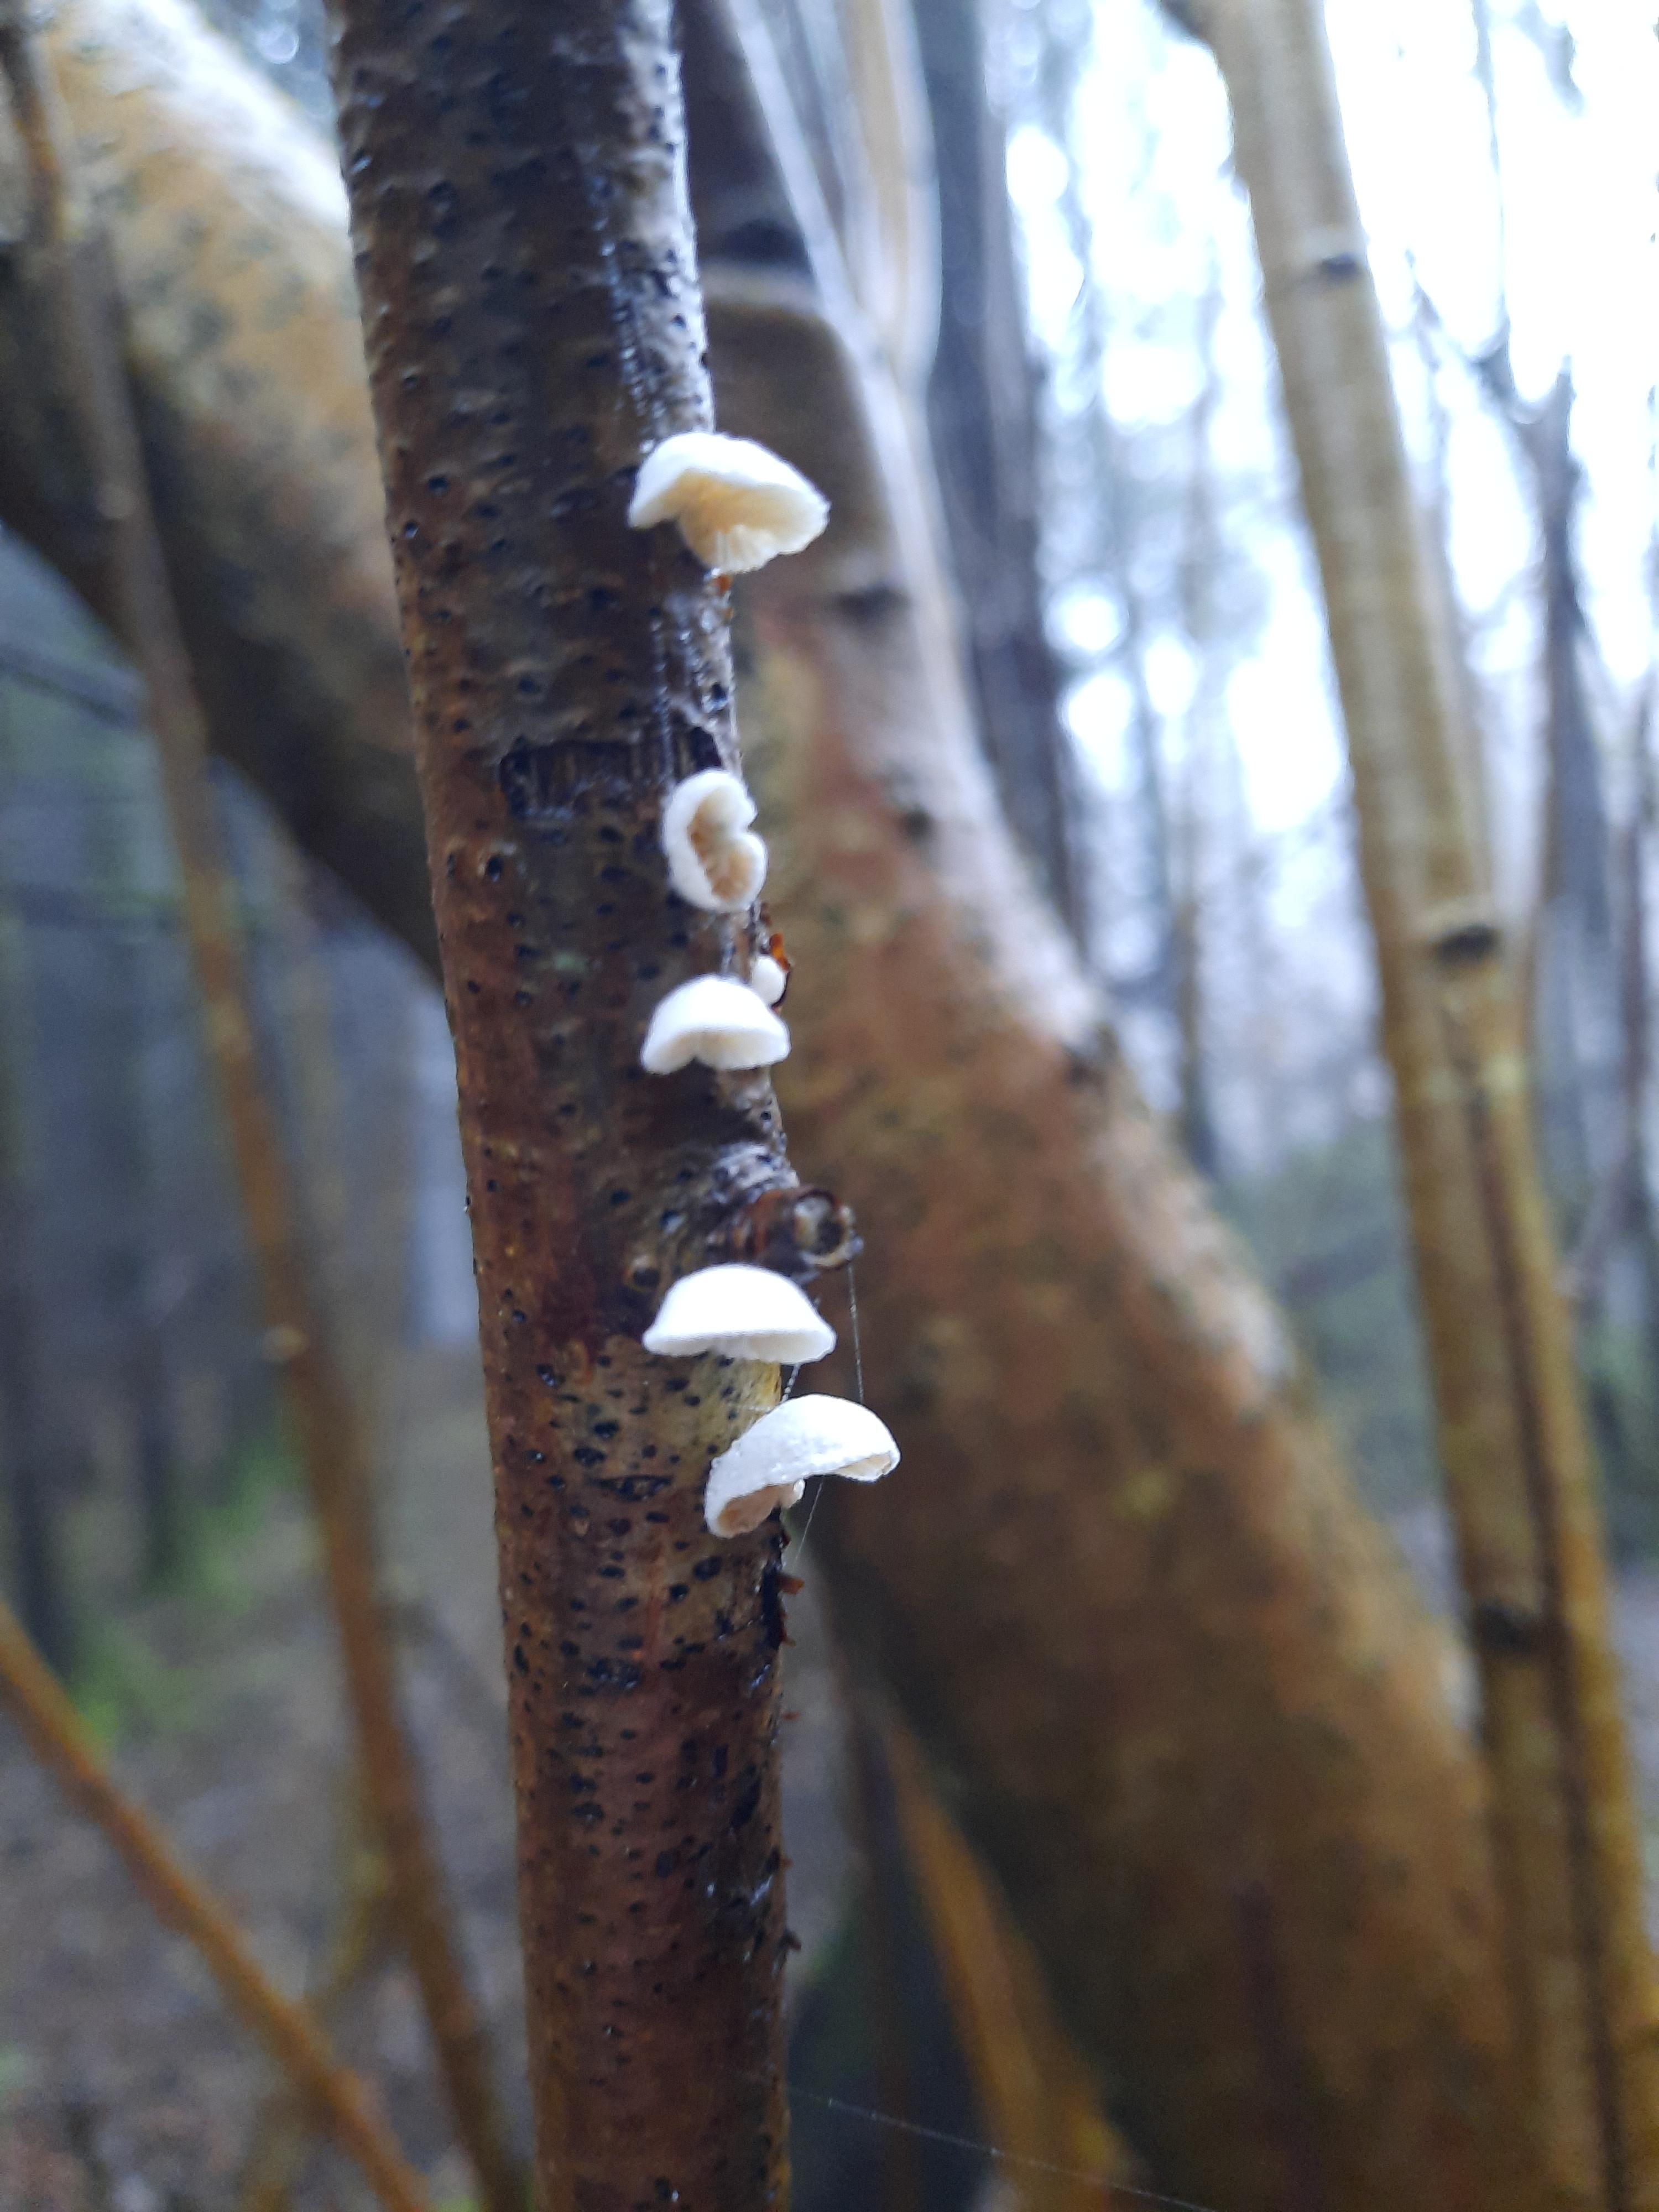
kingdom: Fungi
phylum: Basidiomycota
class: Agaricomycetes
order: Agaricales
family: Crepidotaceae
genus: Crepidotus
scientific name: Crepidotus
